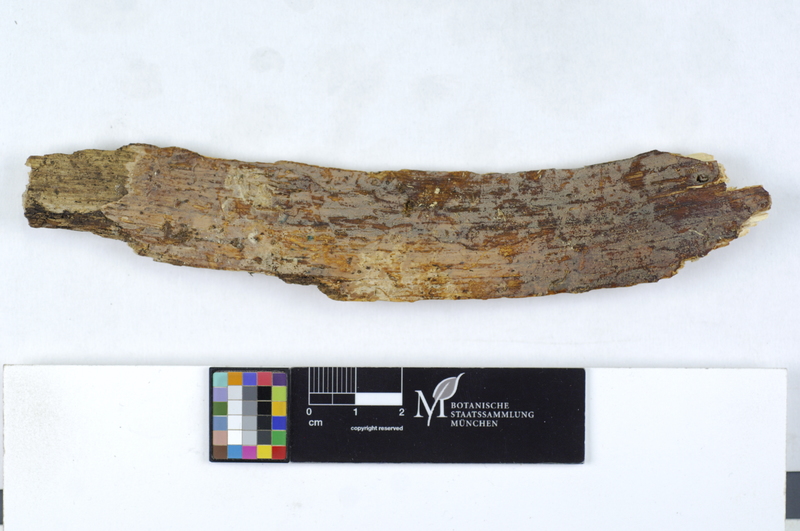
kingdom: Plantae
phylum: Tracheophyta
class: Magnoliopsida
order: Fagales
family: Fagaceae
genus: Quercus
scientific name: Quercus
